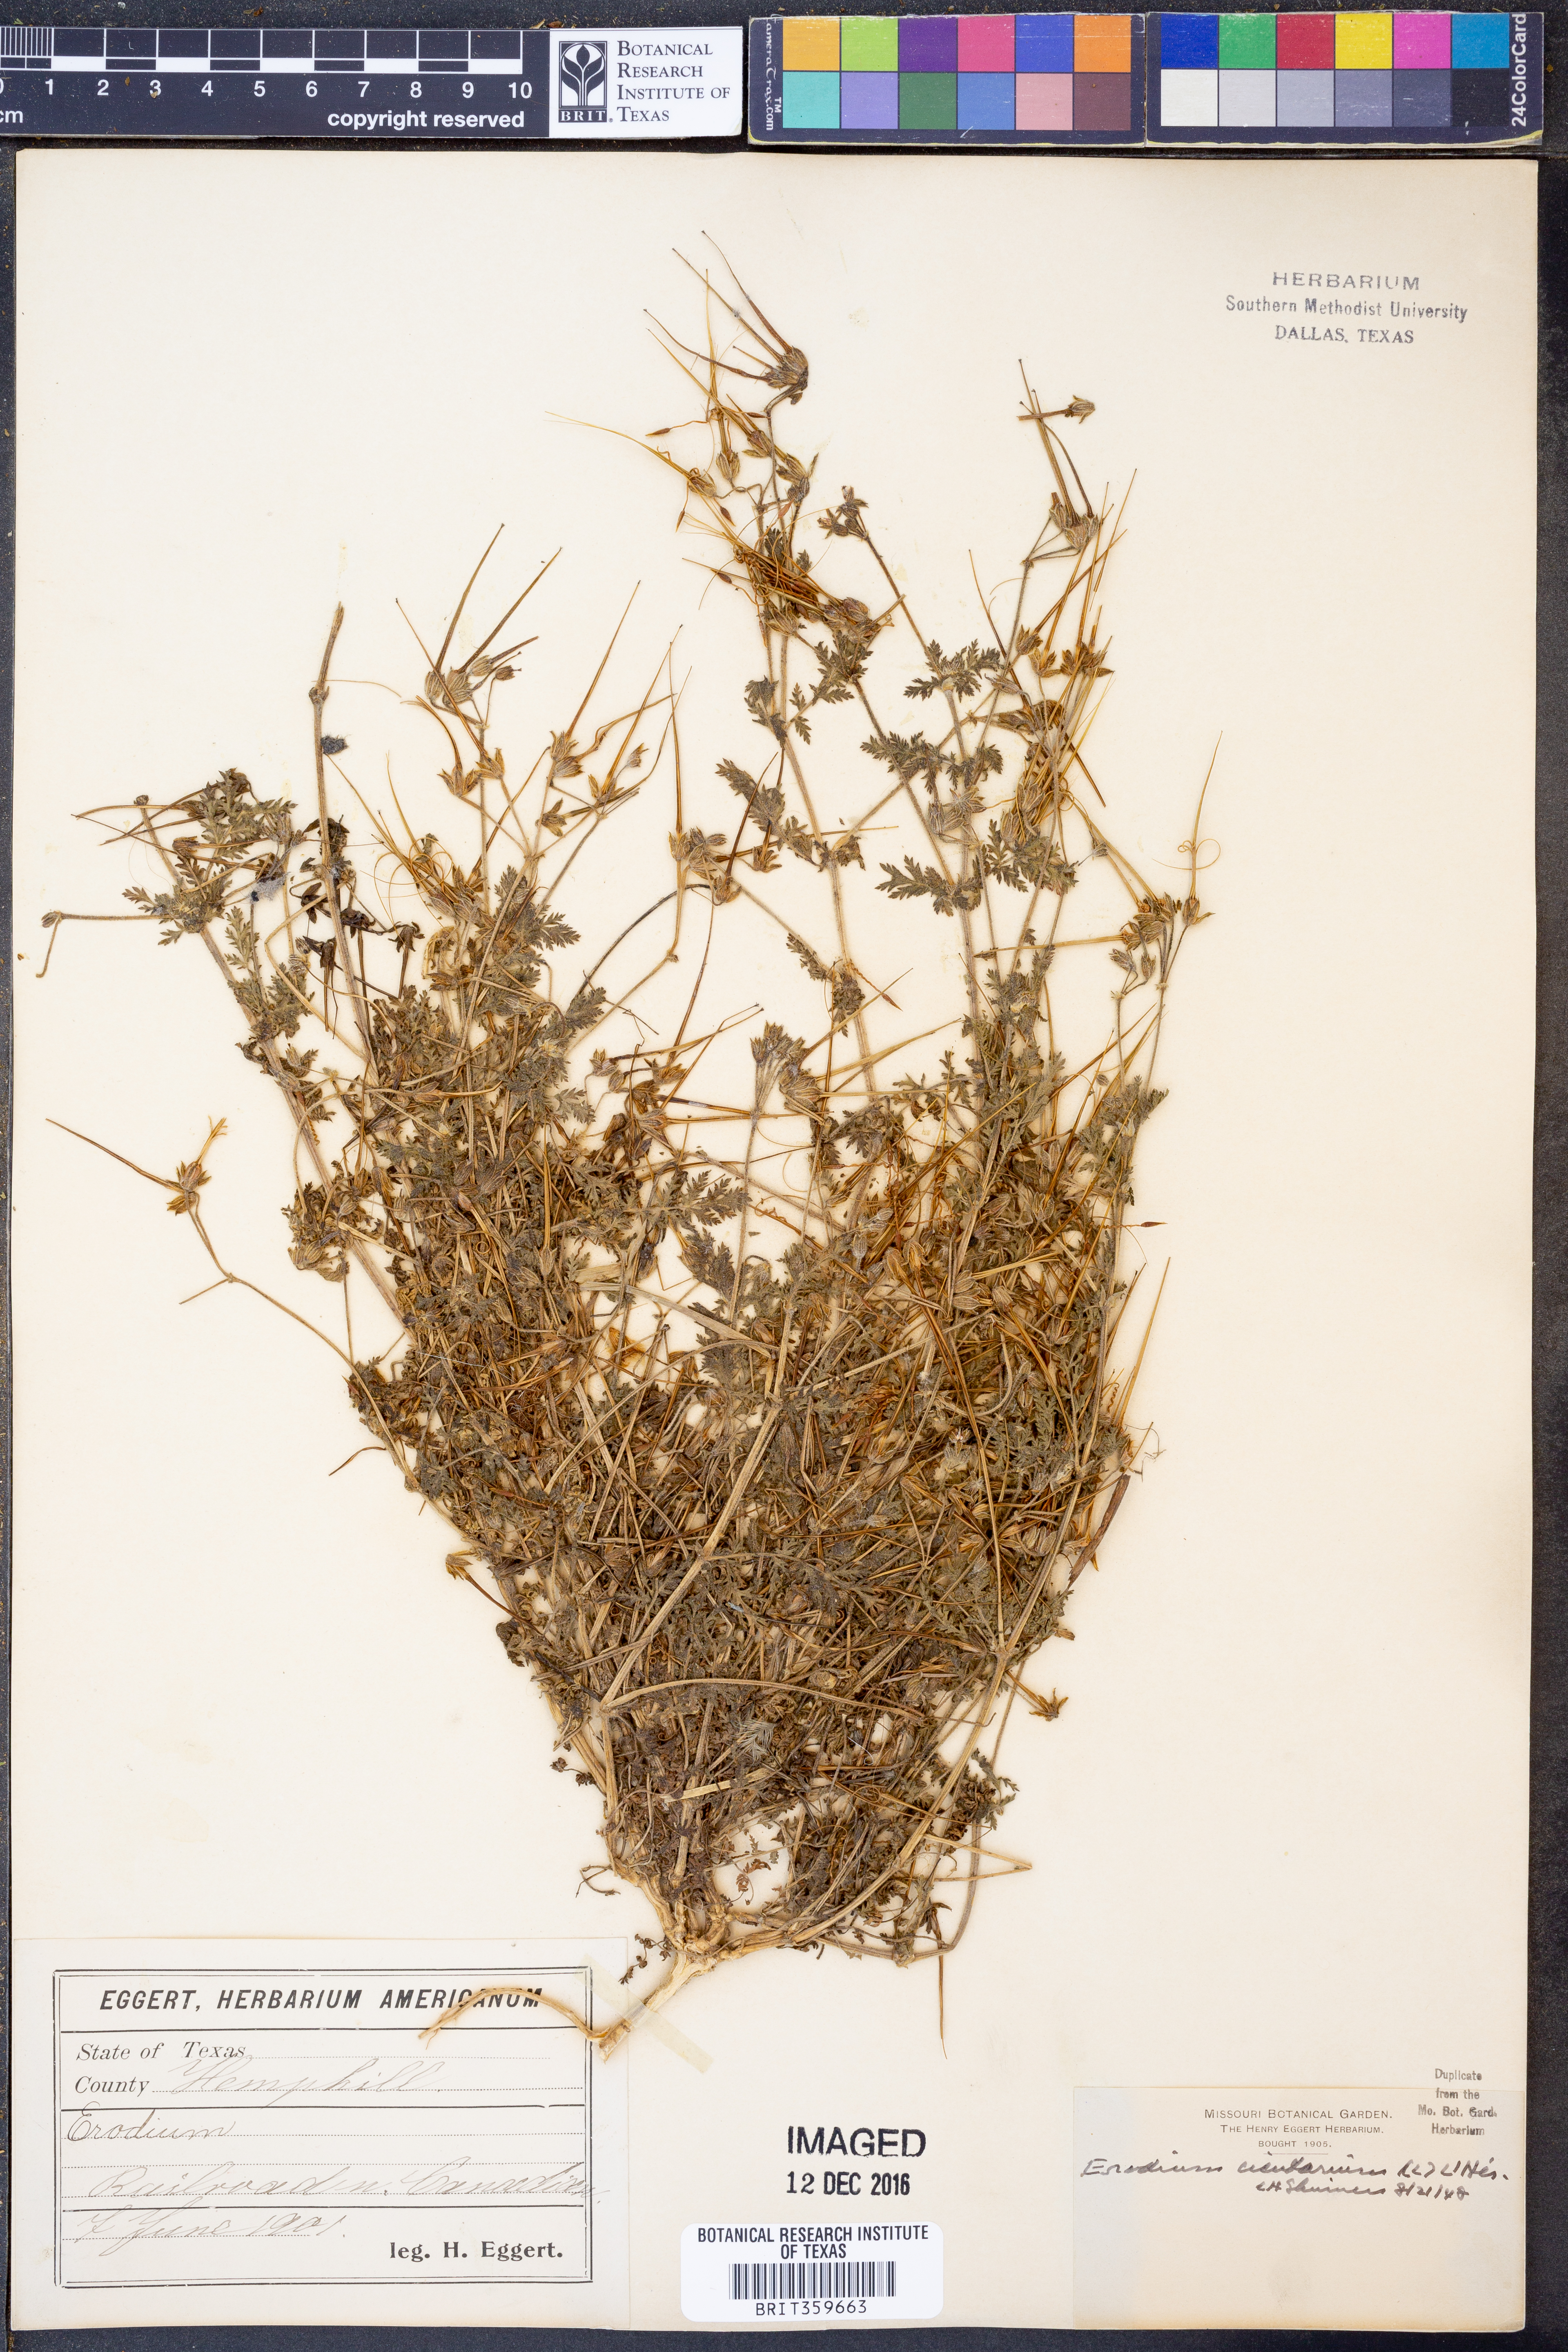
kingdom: Plantae
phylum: Tracheophyta
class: Magnoliopsida
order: Geraniales
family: Geraniaceae
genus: Erodium
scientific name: Erodium cicutarium
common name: Common stork's-bill
